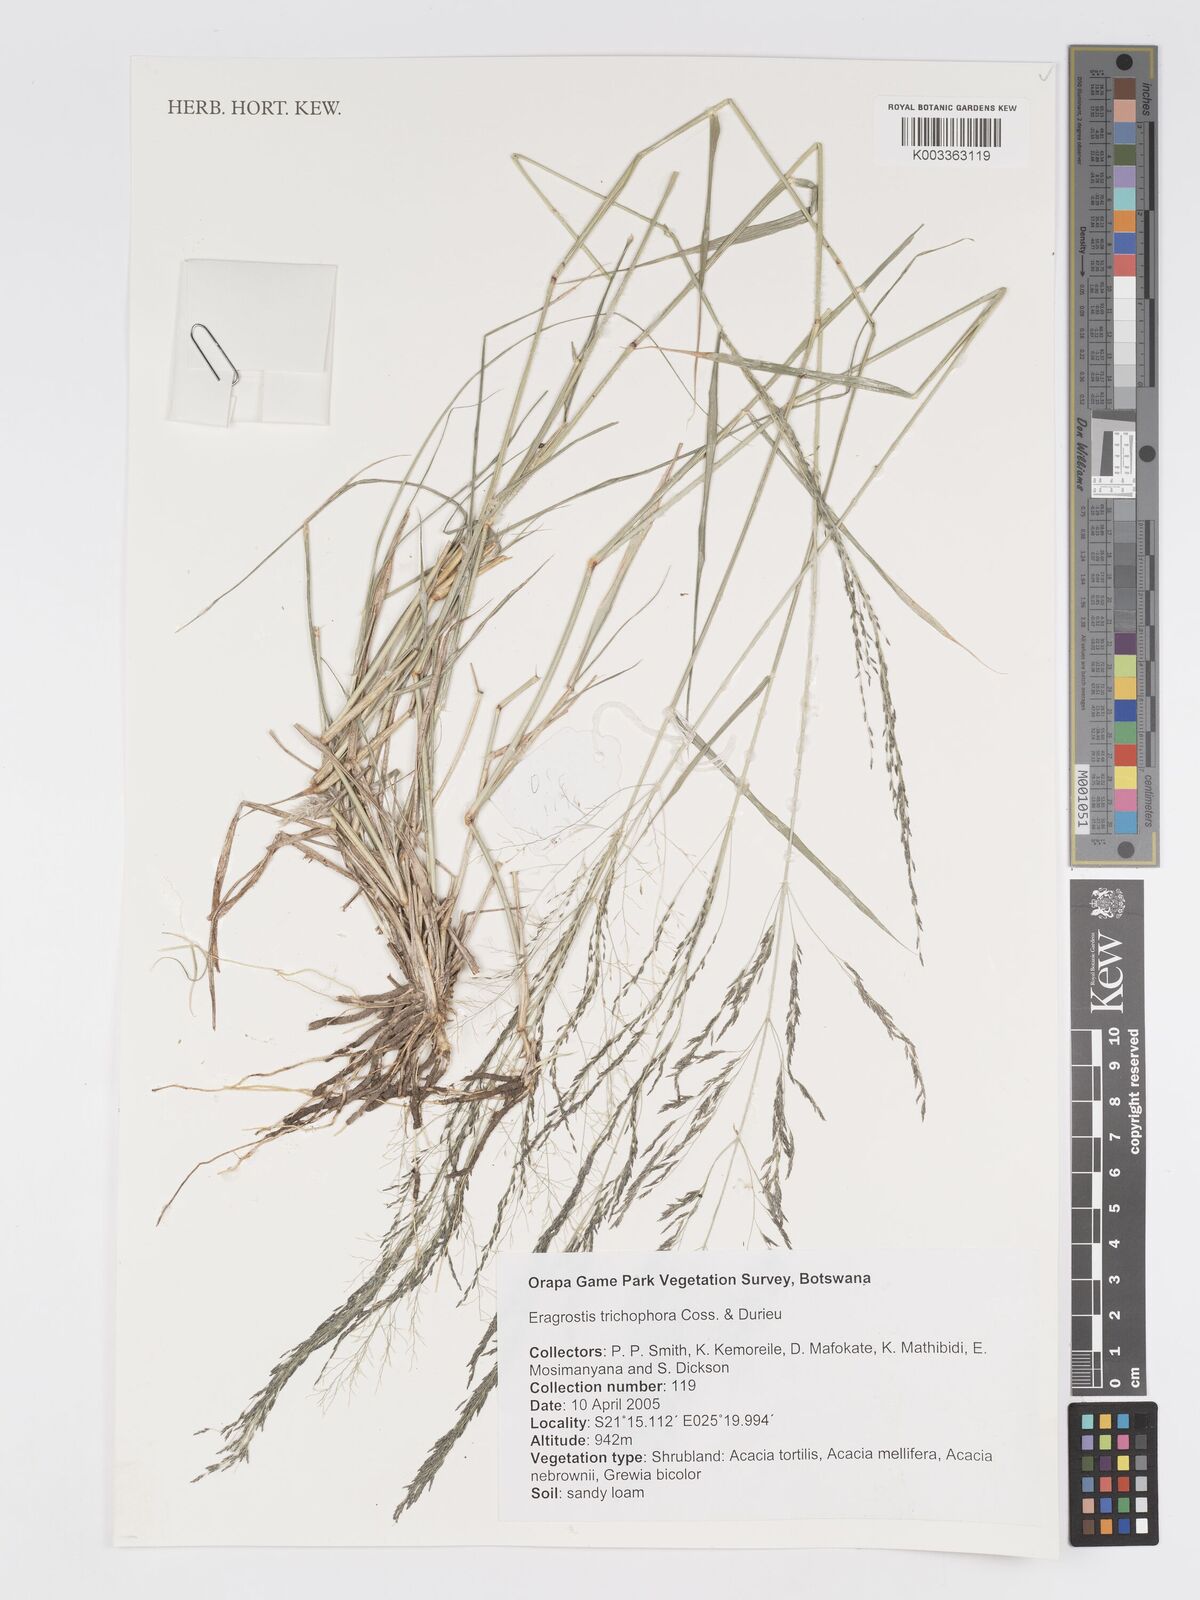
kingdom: Plantae
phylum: Tracheophyta
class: Liliopsida
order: Poales
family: Poaceae
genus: Eragrostis
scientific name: Eragrostis cylindriflora
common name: Cylinderflower lovegrass
